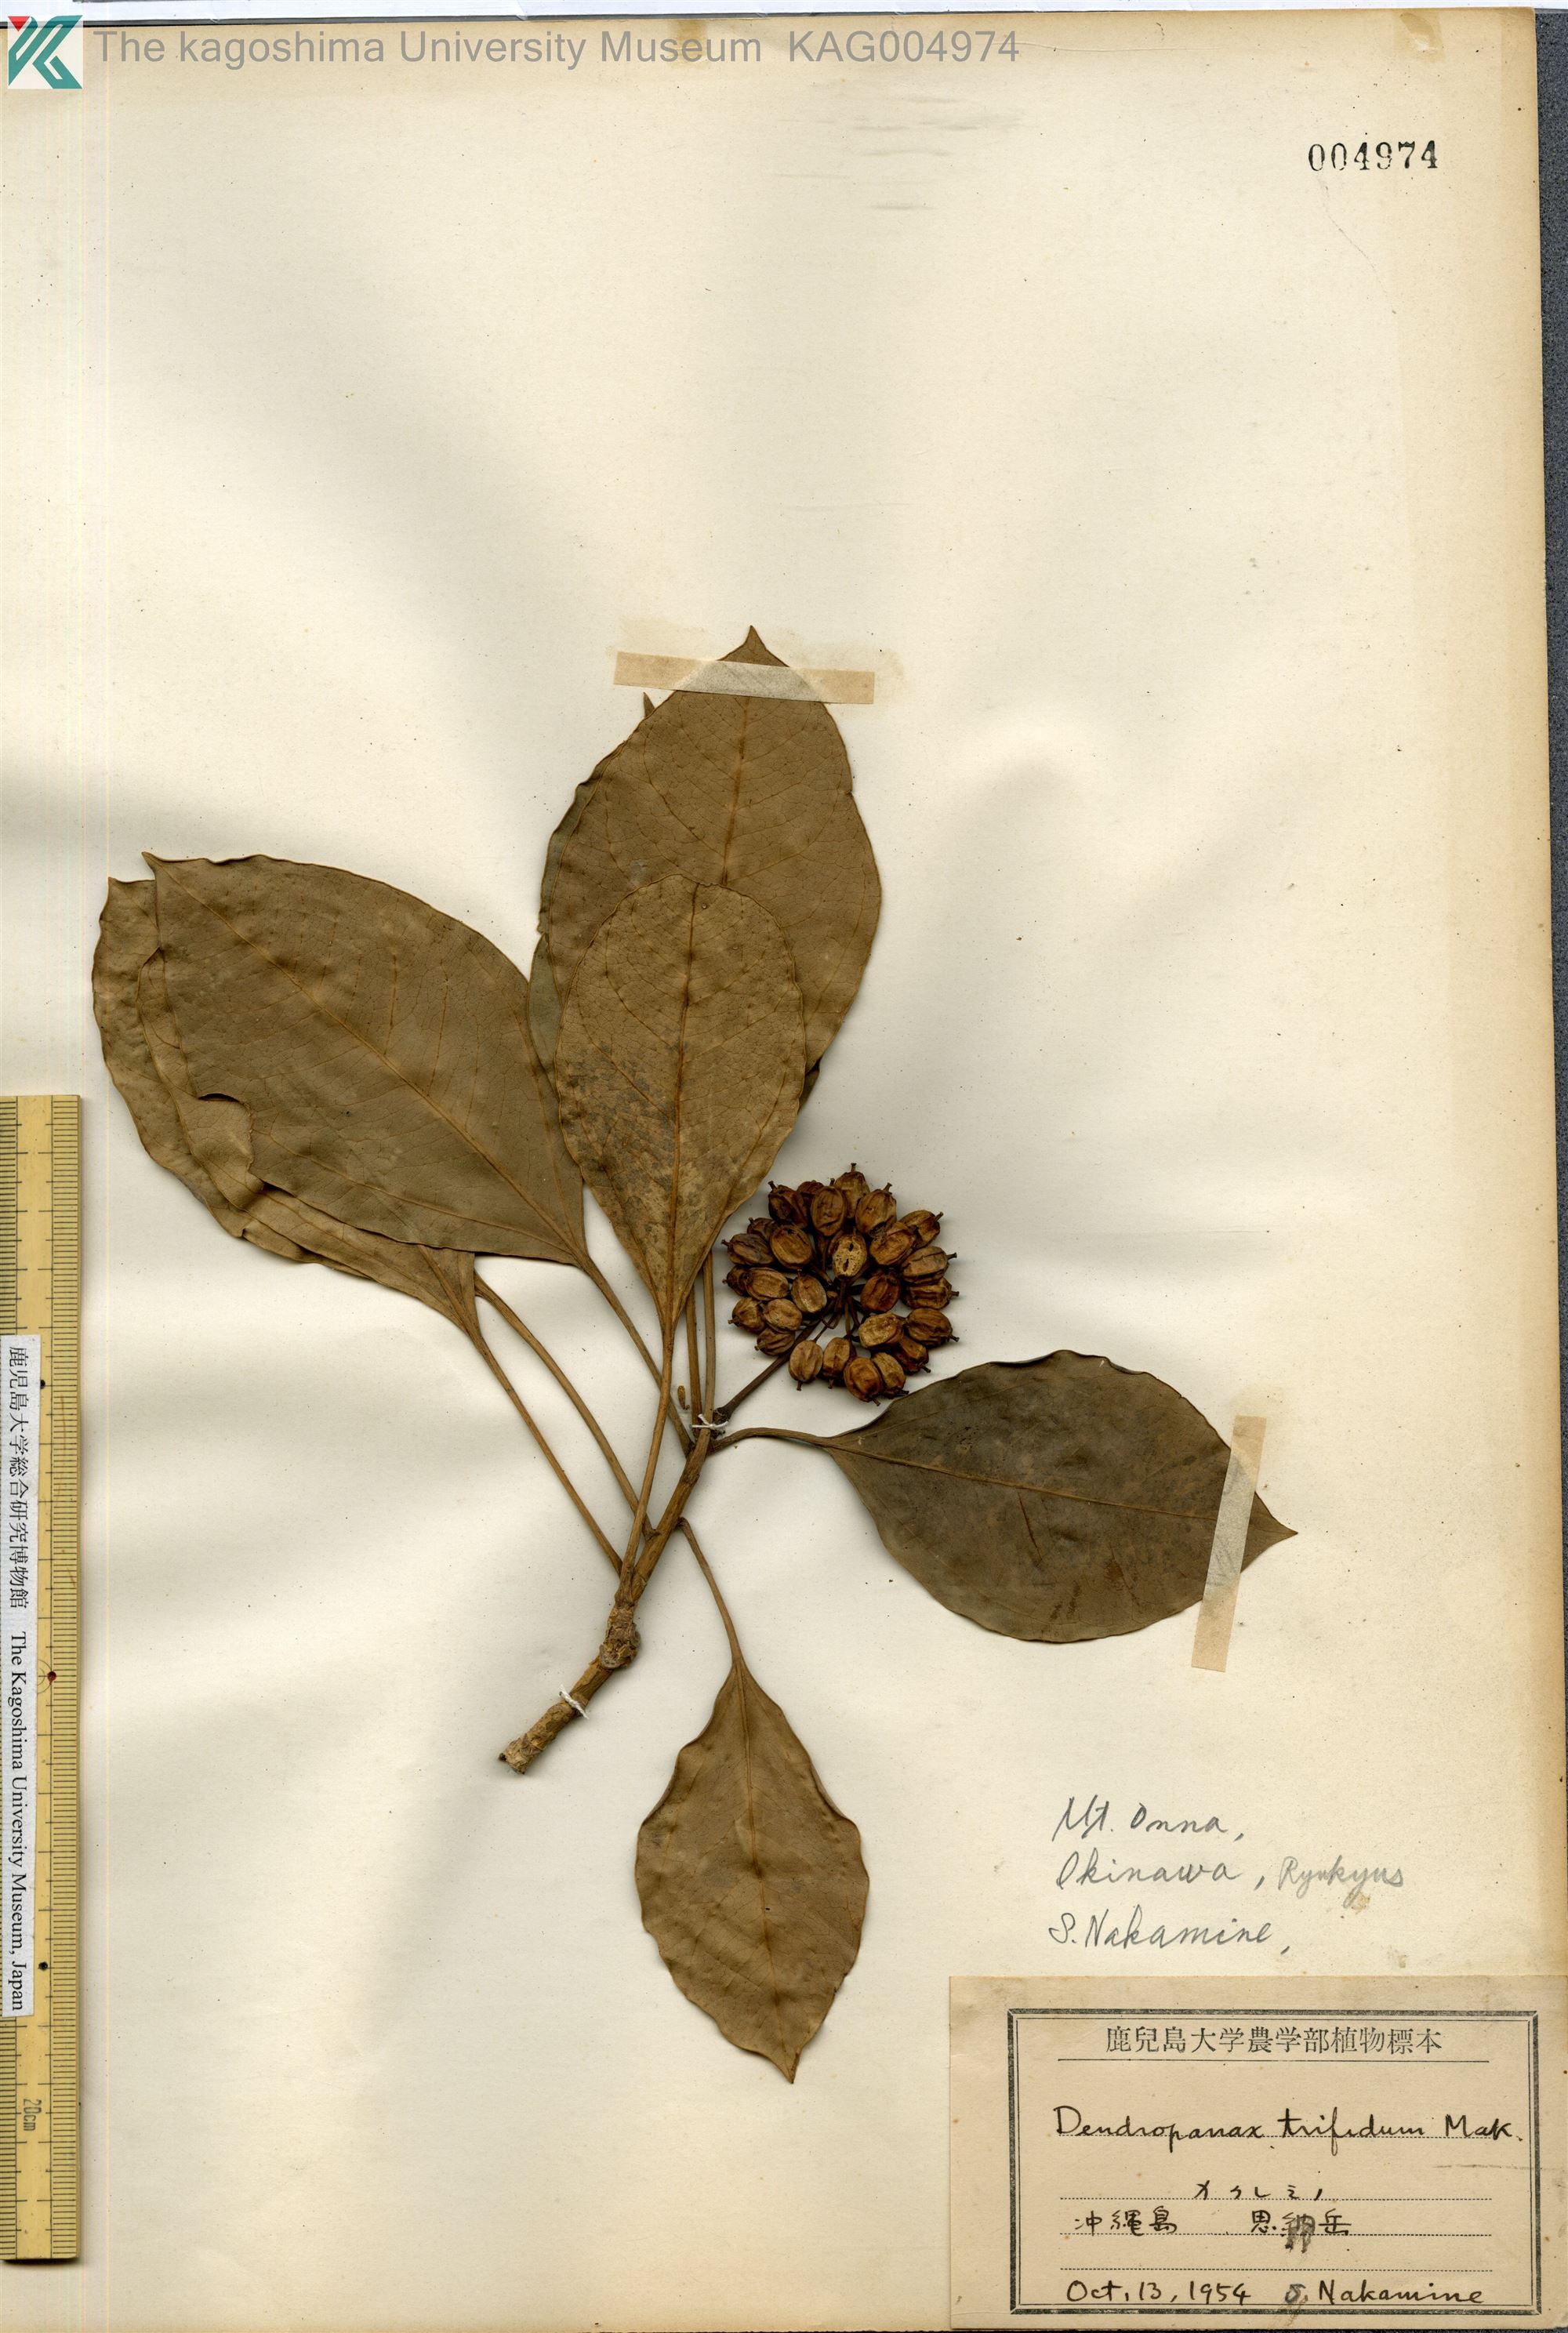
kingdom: Plantae
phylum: Tracheophyta
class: Magnoliopsida
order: Apiales
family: Araliaceae
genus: Dendropanax
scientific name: Dendropanax trifidus
